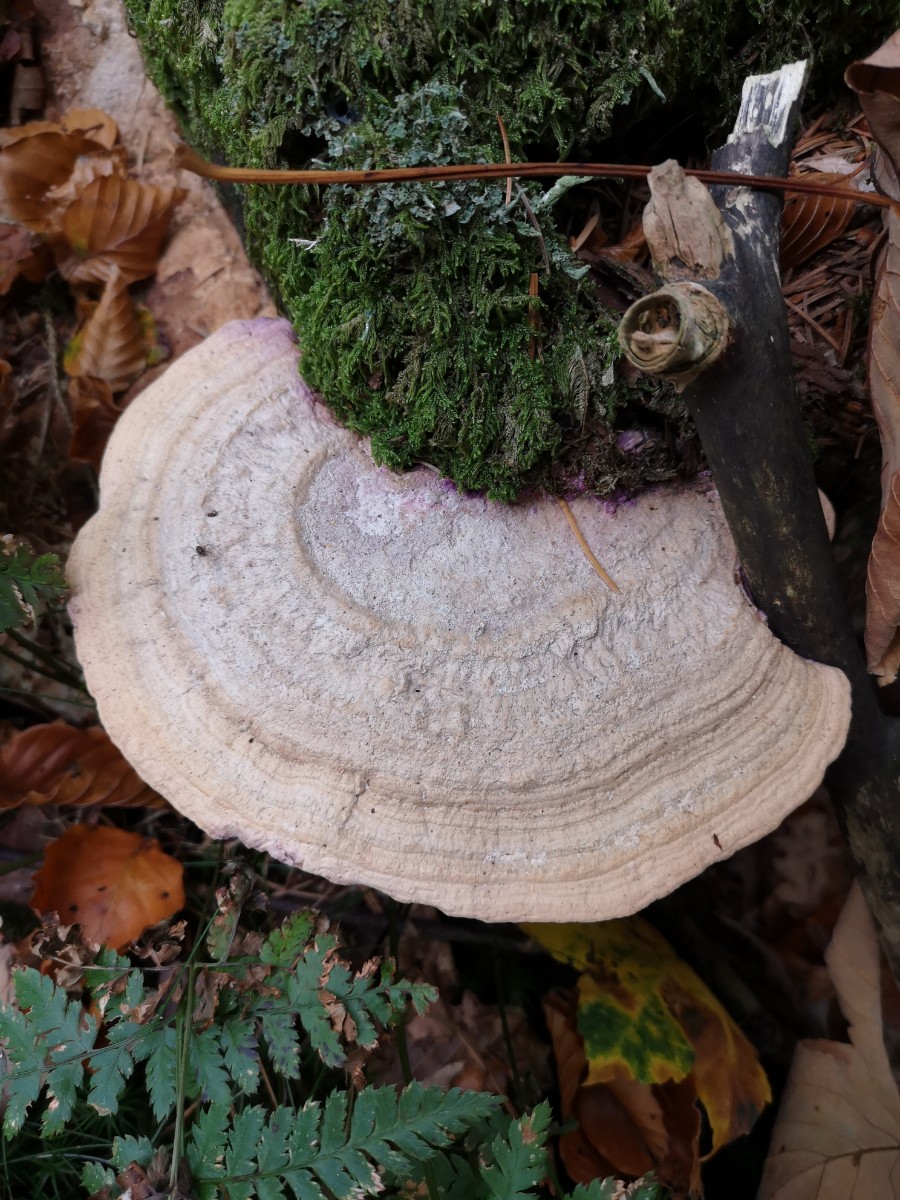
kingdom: Fungi
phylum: Basidiomycota
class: Agaricomycetes
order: Polyporales
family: Fomitopsidaceae
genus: Daedalea
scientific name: Daedalea quercina
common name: ege-labyrintsvamp
